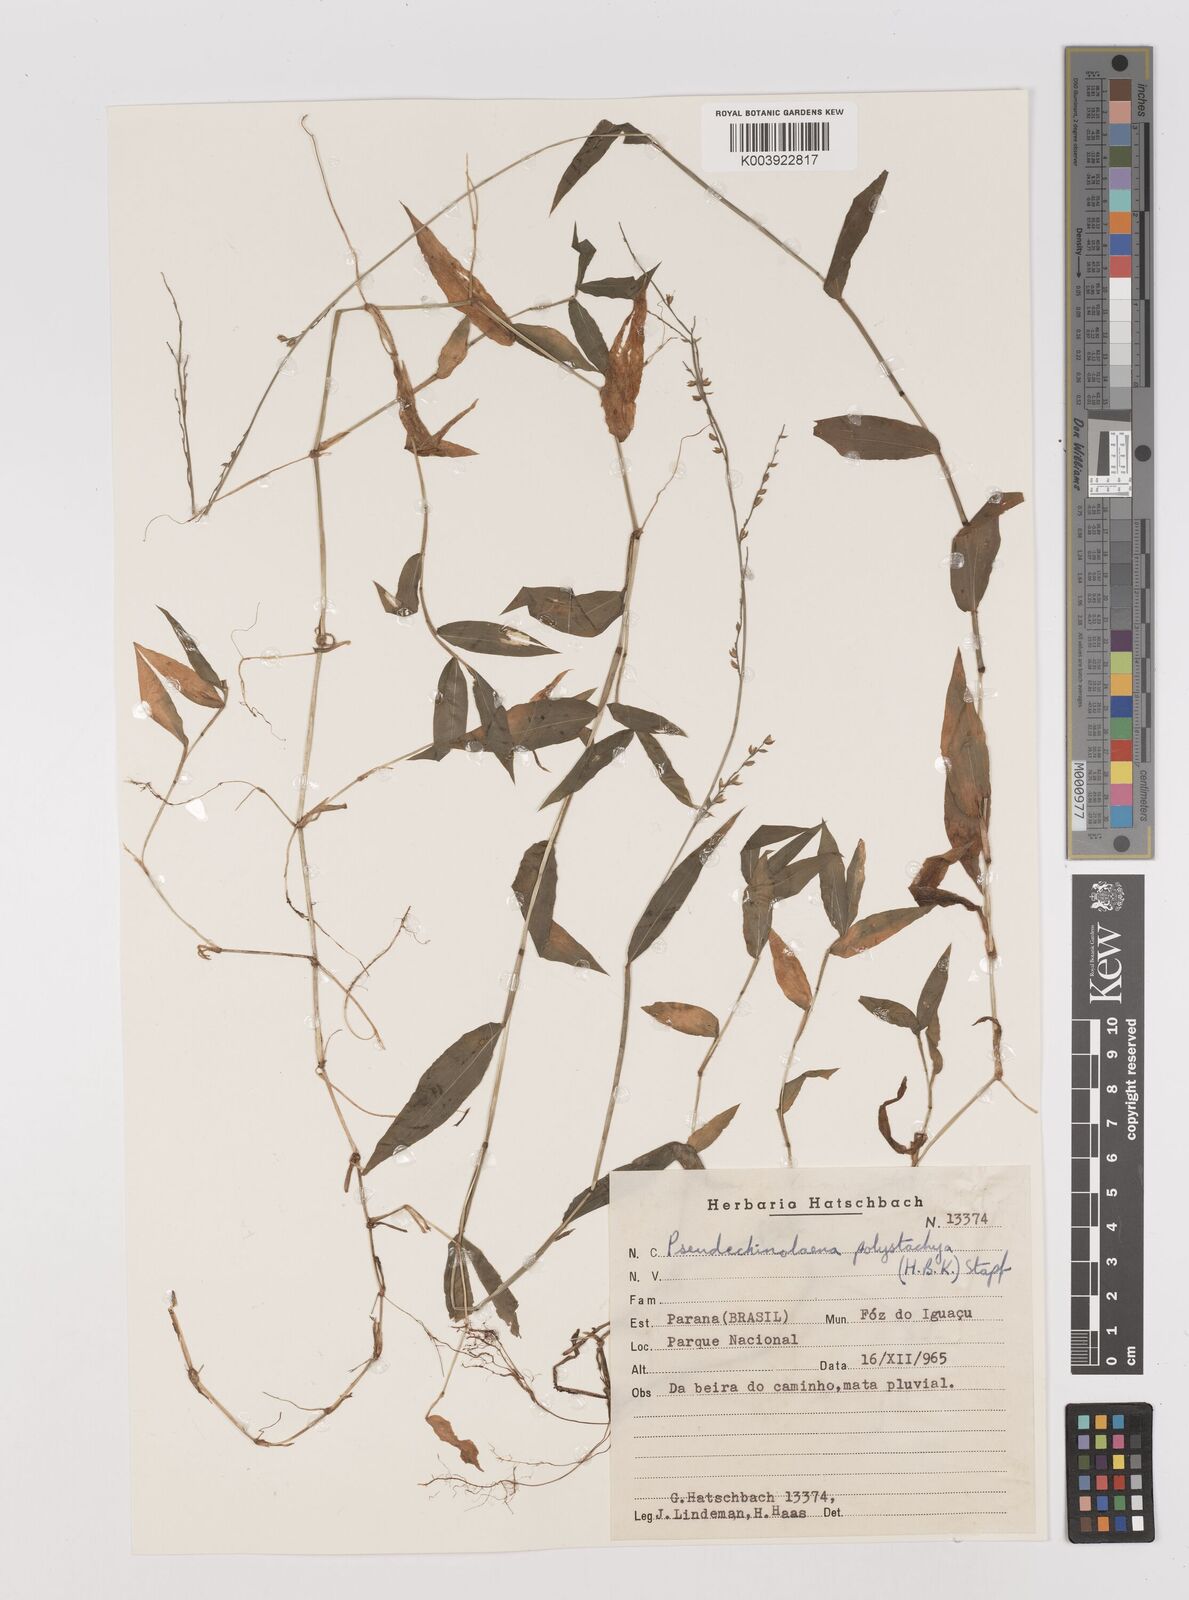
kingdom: Plantae
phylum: Tracheophyta
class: Liliopsida
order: Poales
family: Poaceae
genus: Pseudechinolaena
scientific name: Pseudechinolaena polystachya
